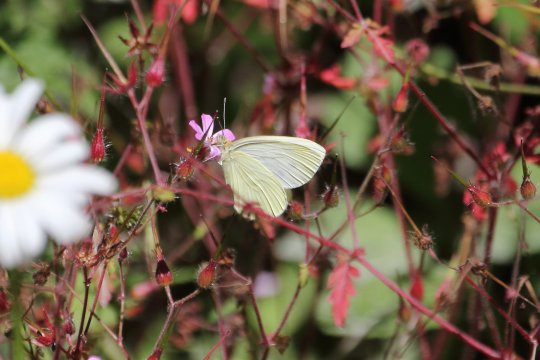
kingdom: Animalia
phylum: Arthropoda
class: Insecta
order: Lepidoptera
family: Pieridae
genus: Pieris
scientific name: Pieris marginalis
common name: Margined White
